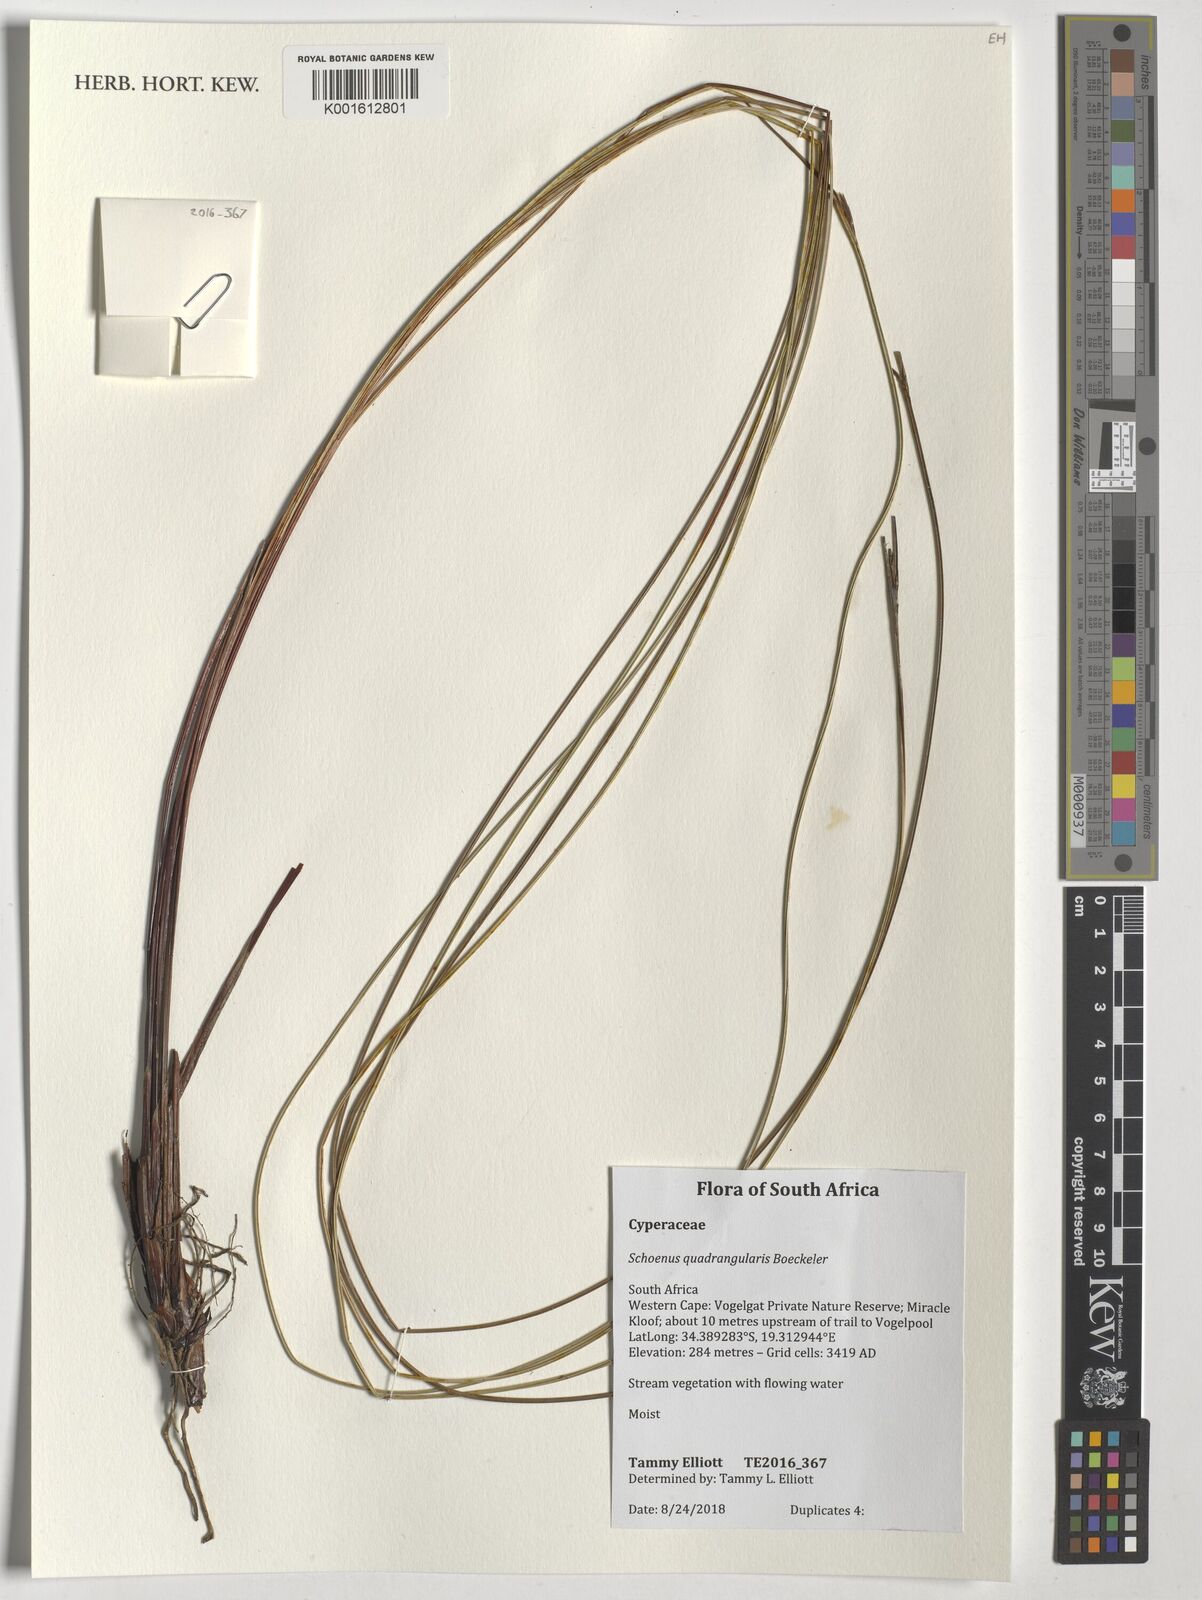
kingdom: Plantae
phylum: Tracheophyta
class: Liliopsida
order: Poales
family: Cyperaceae
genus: Schoenus
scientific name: Schoenus quadrangularis
